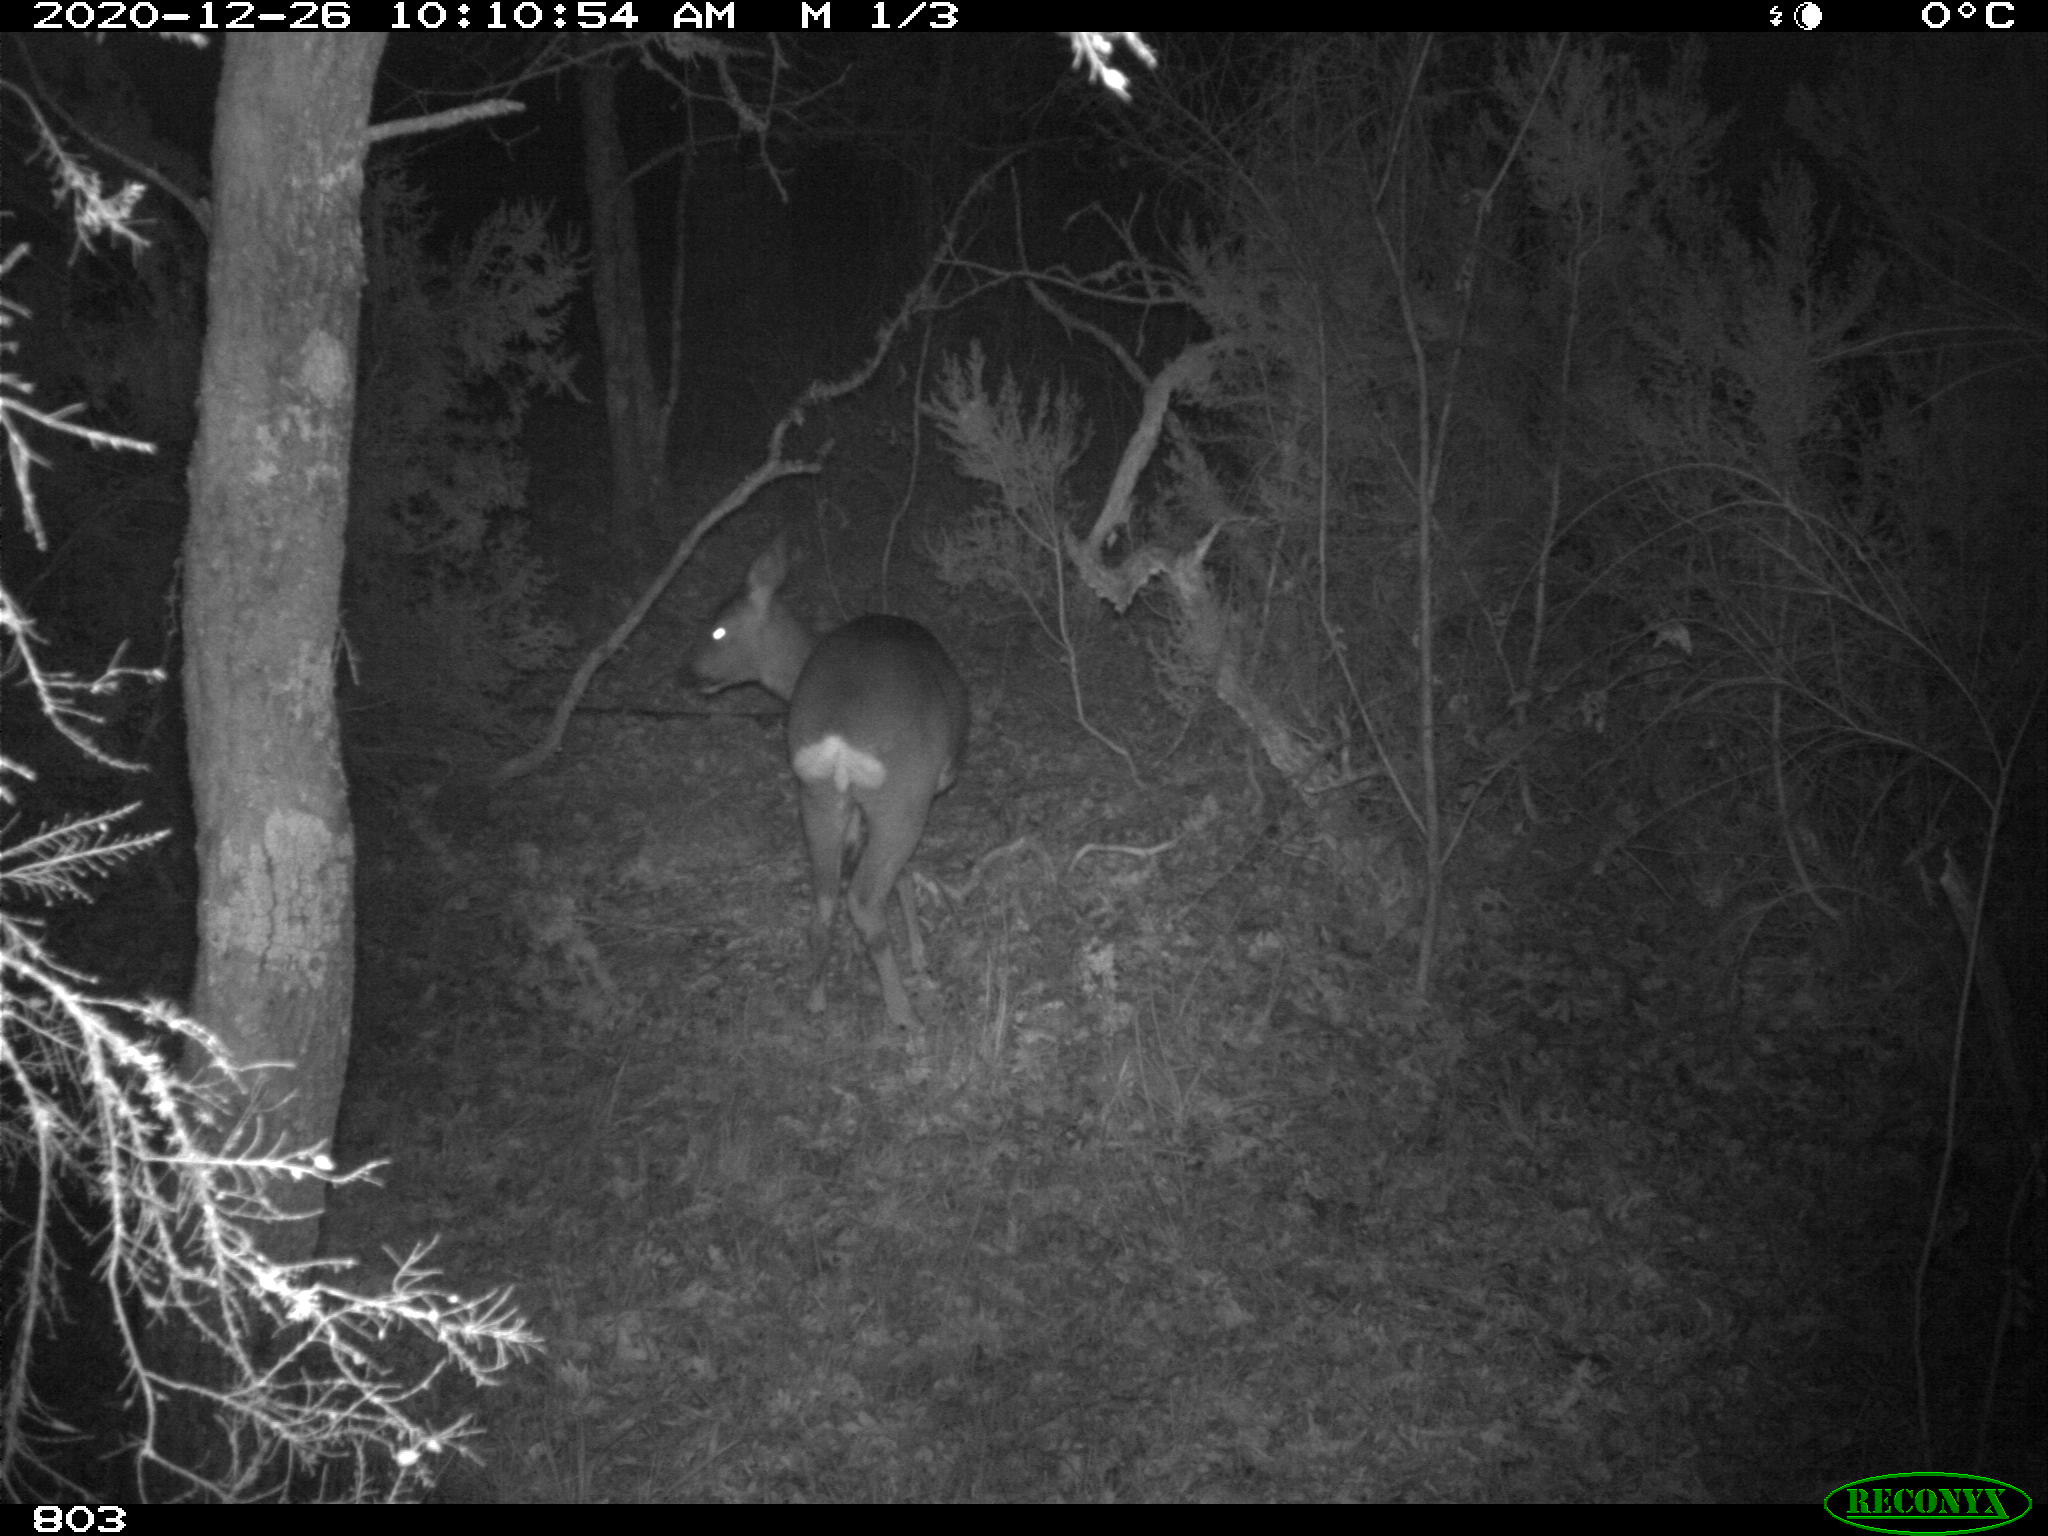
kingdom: Animalia
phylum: Chordata
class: Mammalia
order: Artiodactyla
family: Cervidae
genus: Capreolus
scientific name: Capreolus capreolus
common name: Western roe deer
